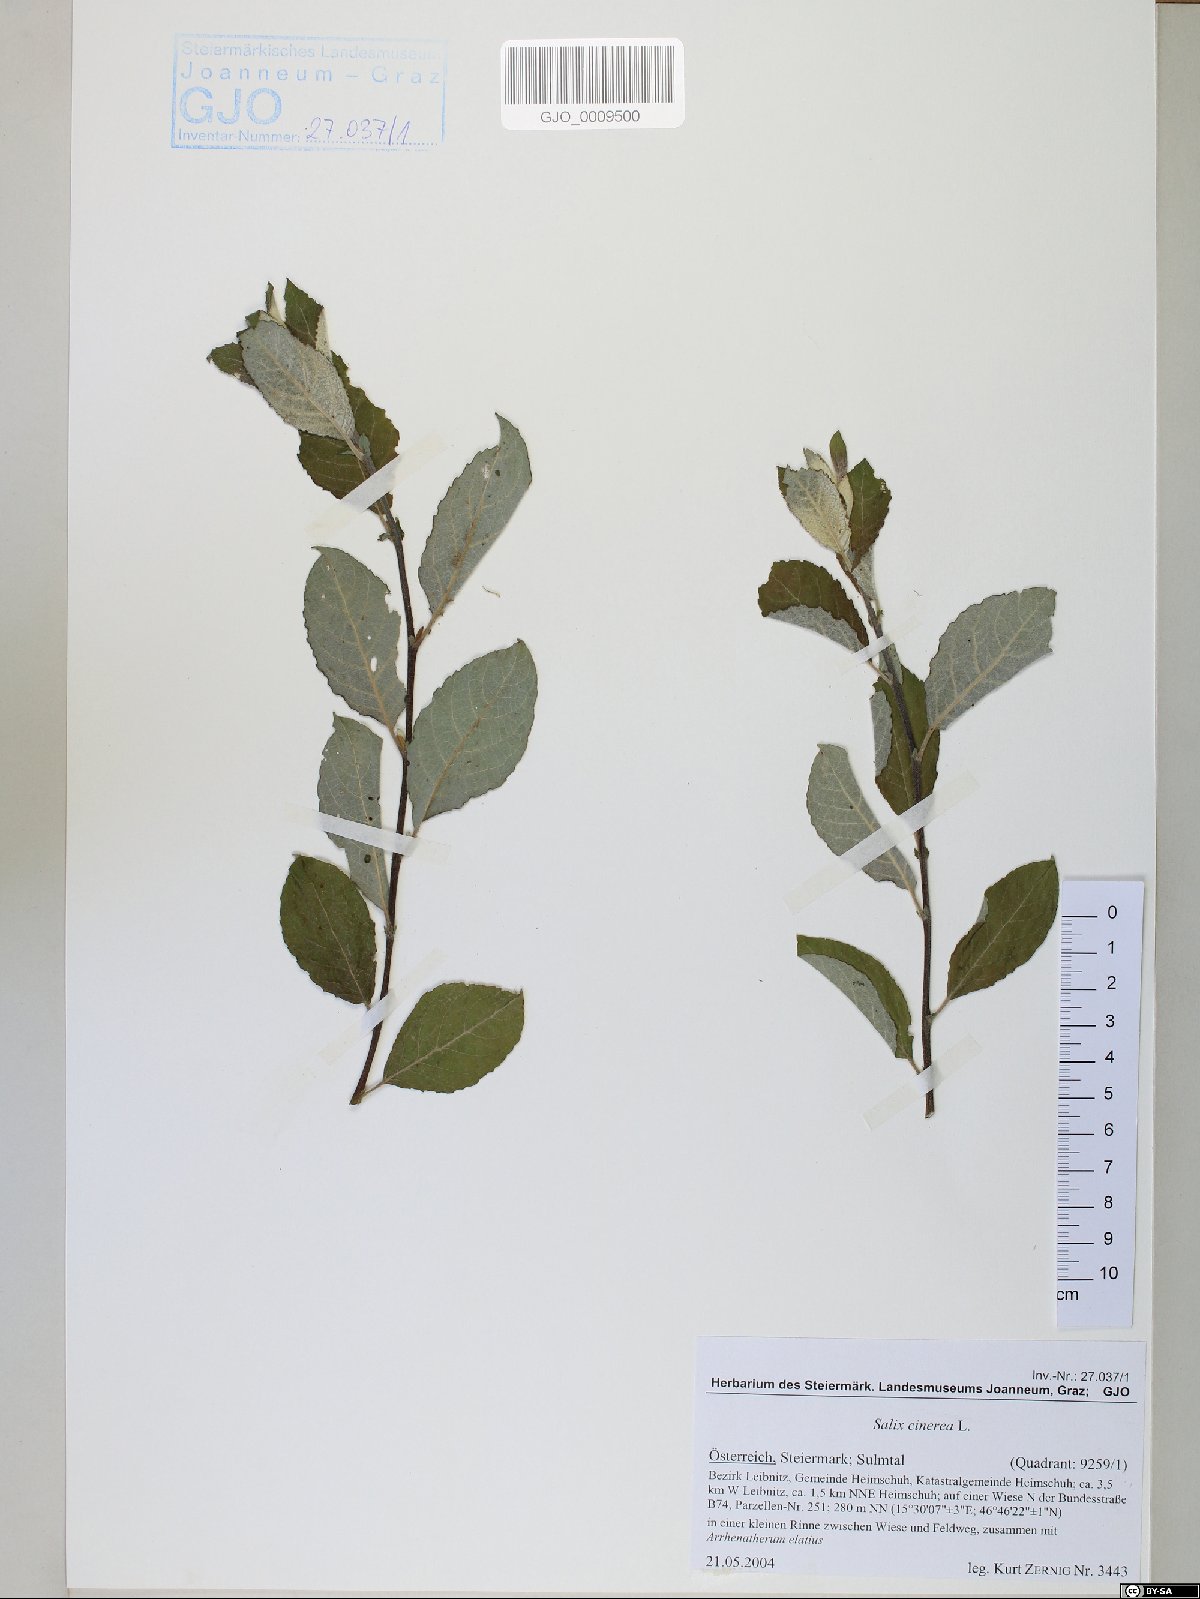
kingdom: Plantae
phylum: Tracheophyta
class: Magnoliopsida
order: Malpighiales
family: Salicaceae
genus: Salix
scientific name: Salix cinerea
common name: Common sallow
